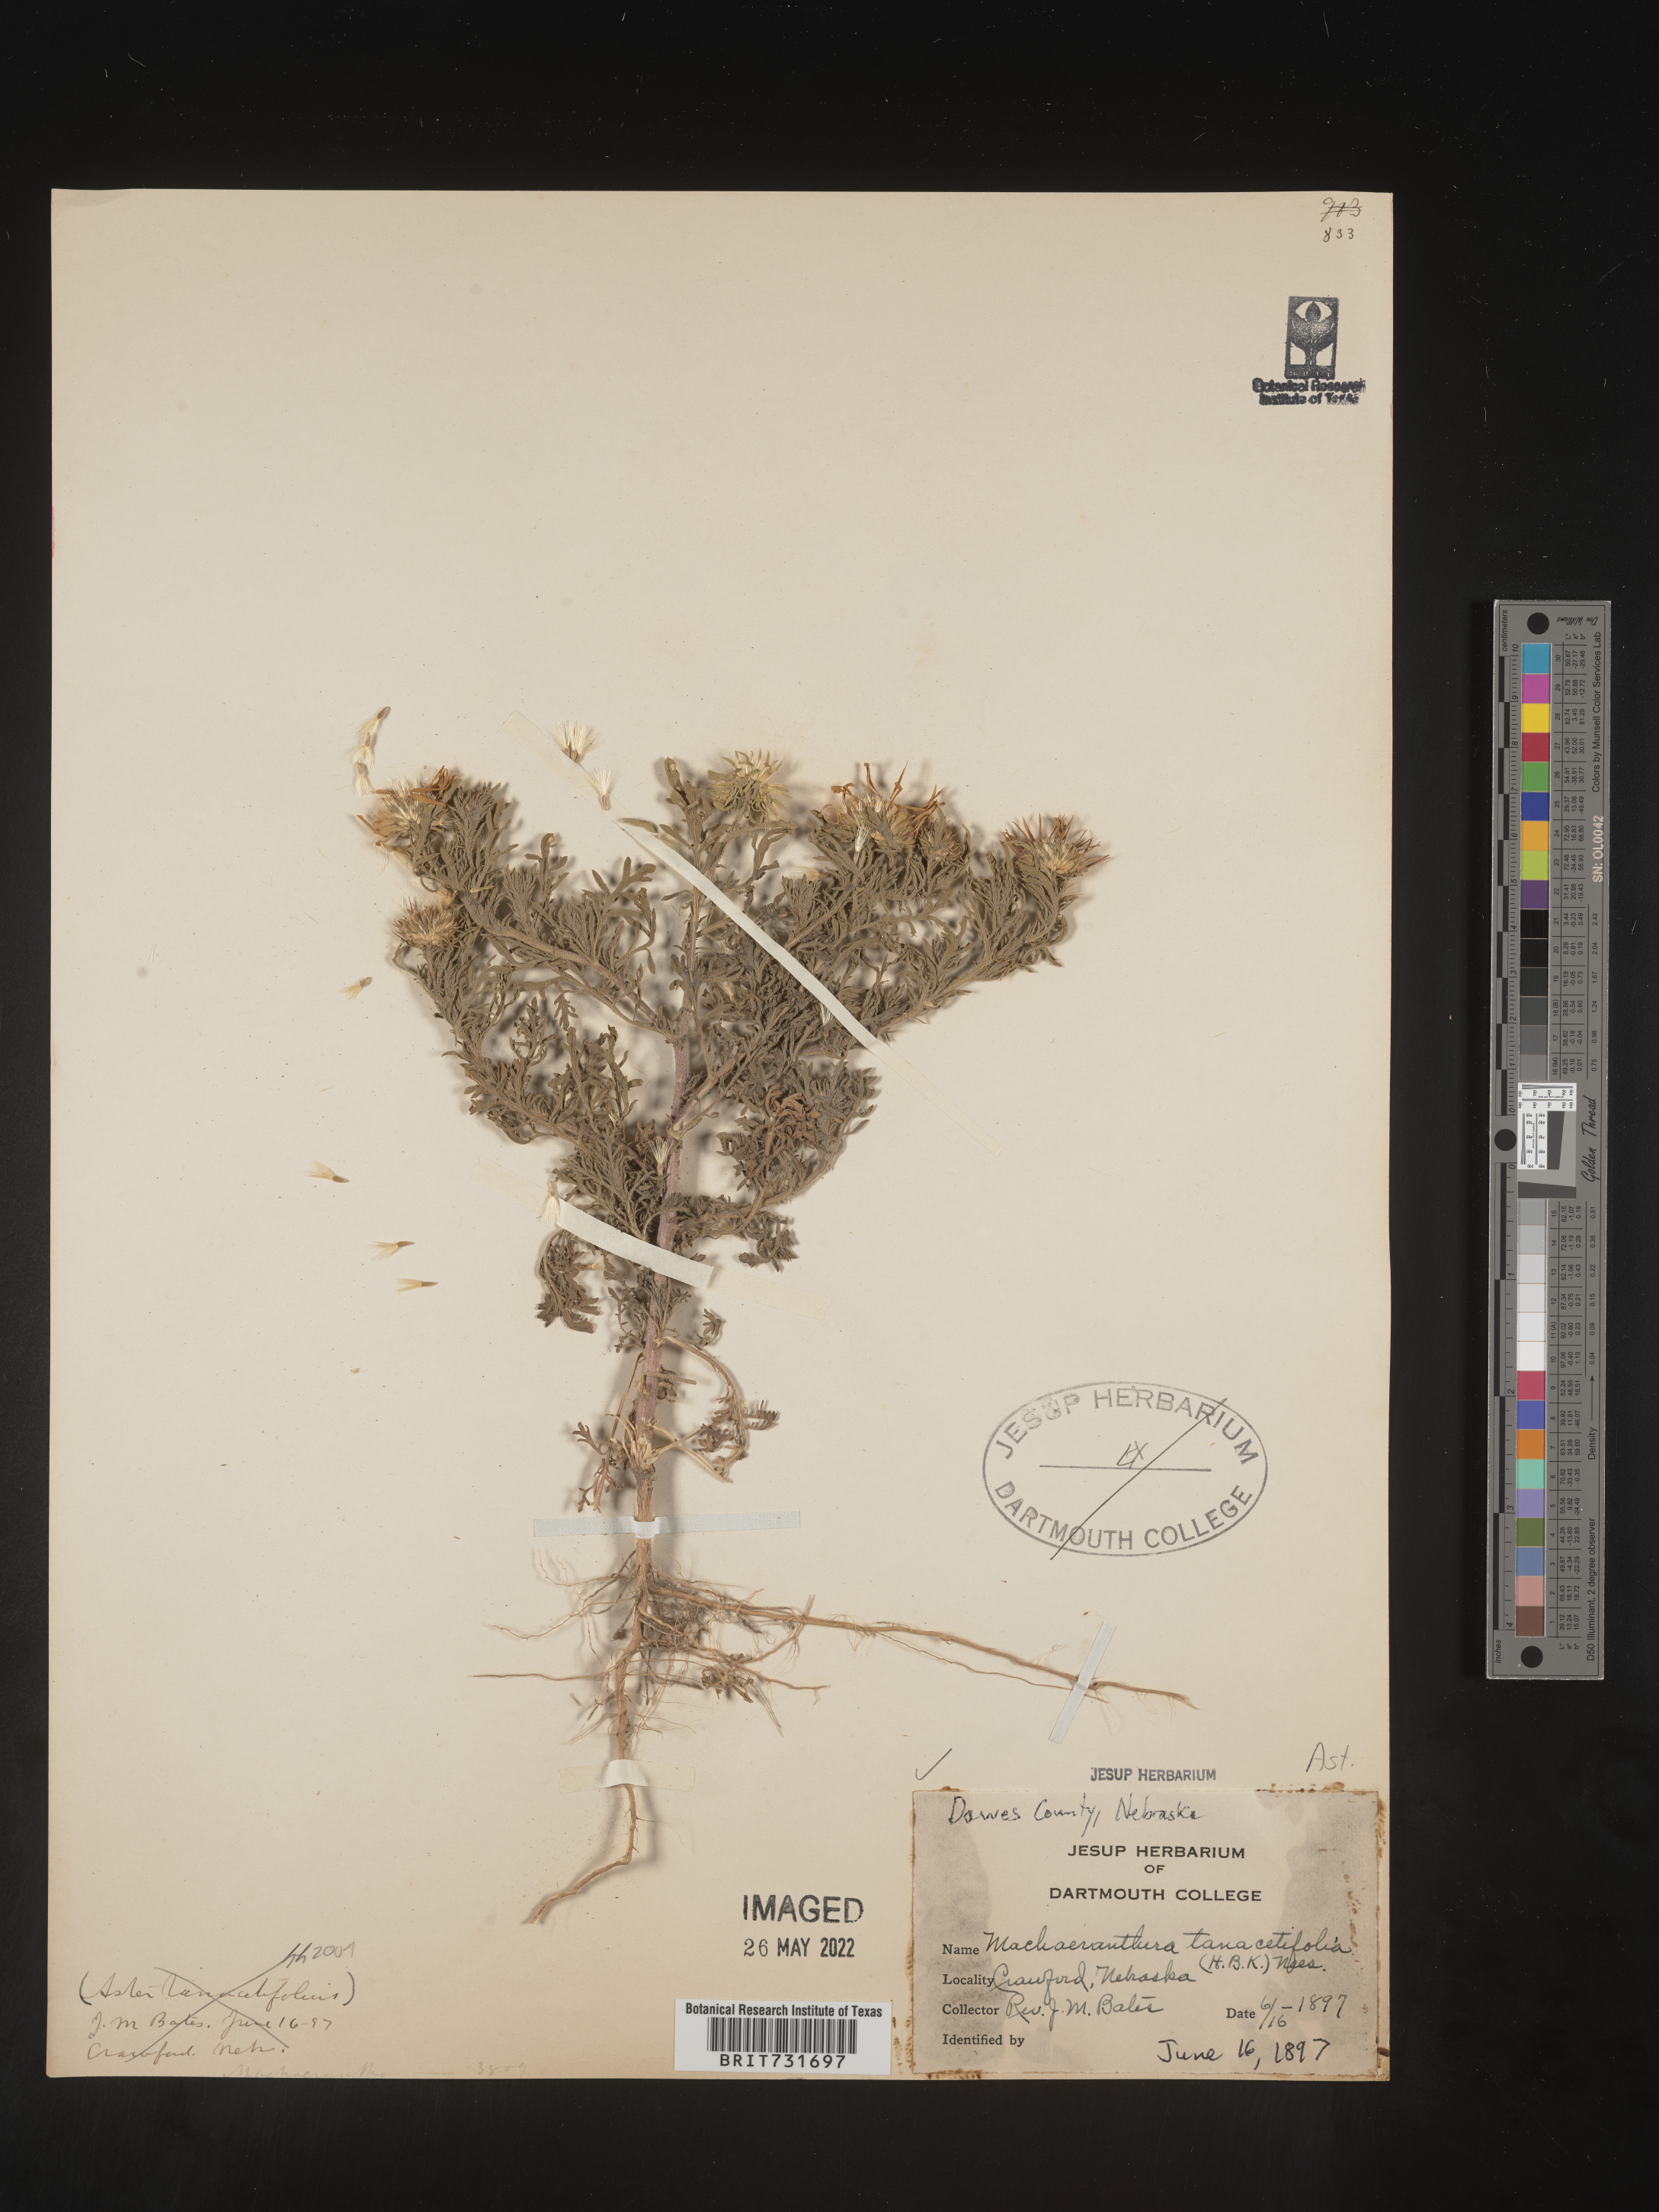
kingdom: Plantae
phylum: Tracheophyta
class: Magnoliopsida
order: Asterales
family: Asteraceae
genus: Machaeranthera
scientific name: Machaeranthera tanacetifolia
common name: Tansy-aster
